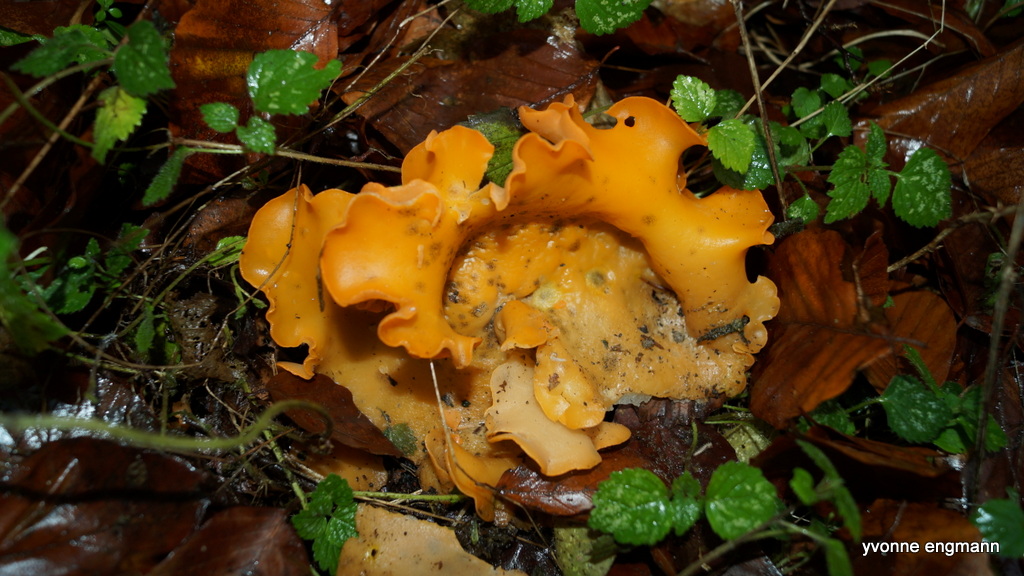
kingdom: Fungi
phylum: Ascomycota
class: Pezizomycetes
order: Pezizales
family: Pyronemataceae
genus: Aleuria
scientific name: Aleuria aurantia
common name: almindelig orangebæger
